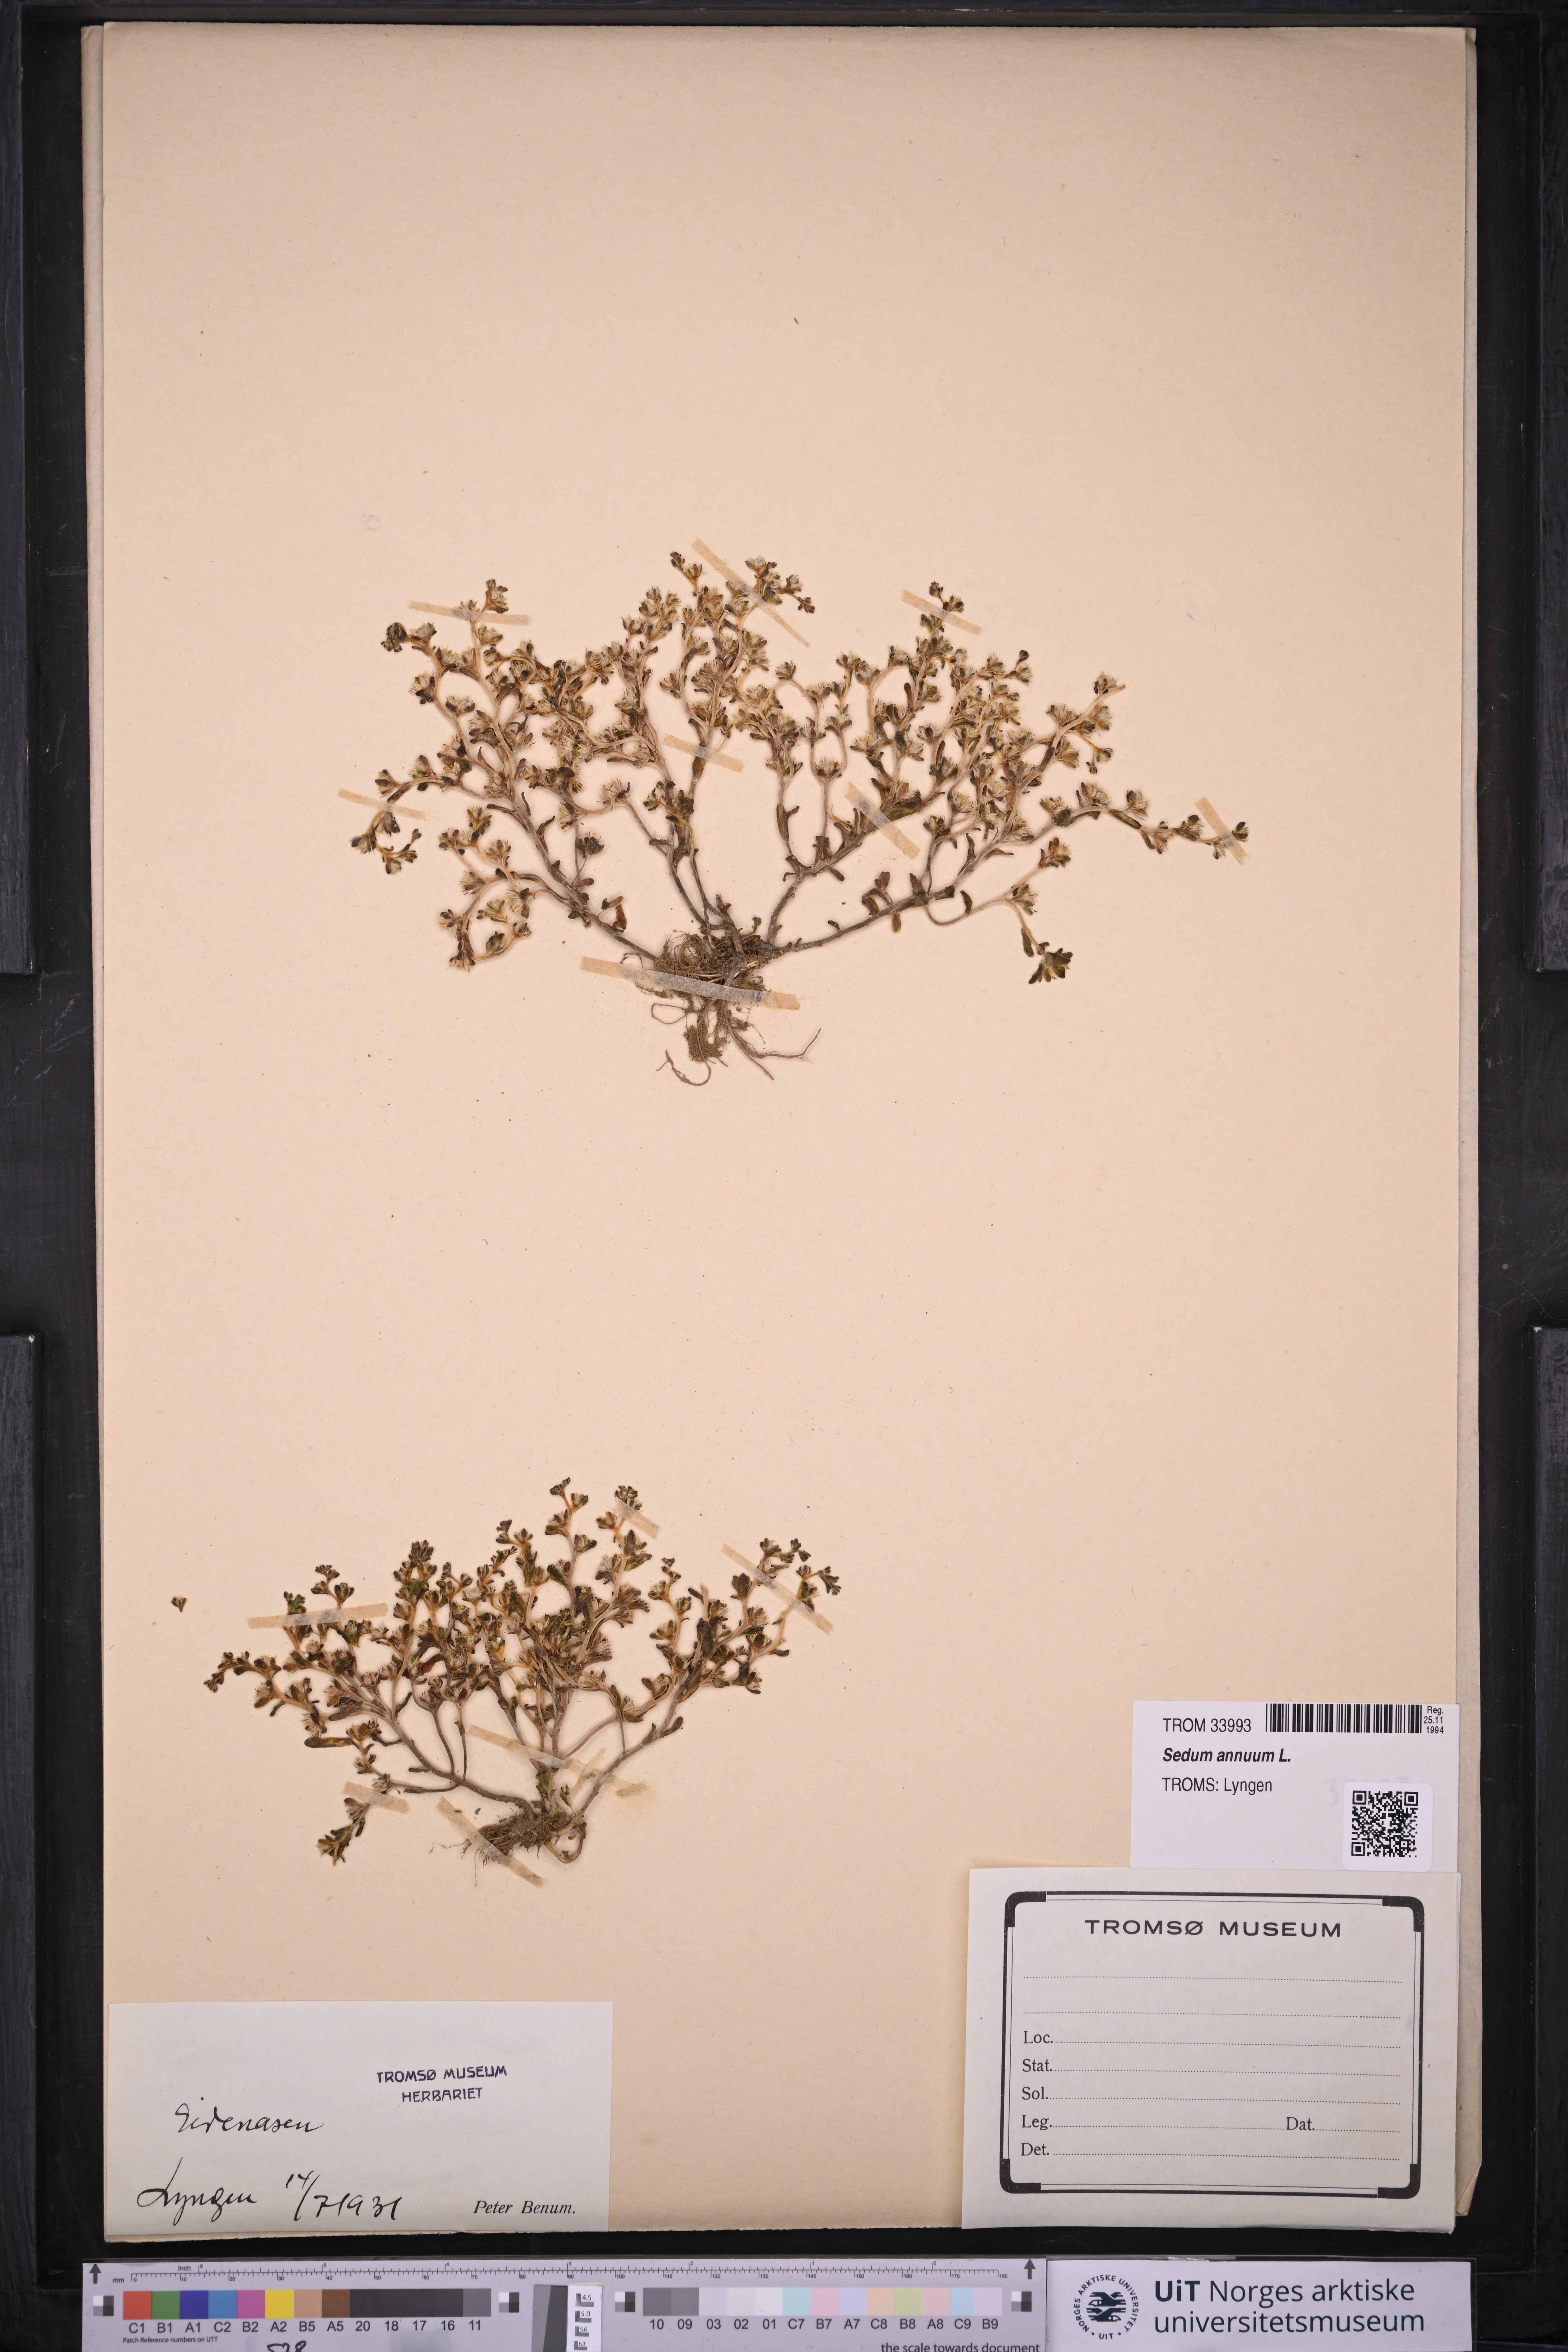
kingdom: Plantae
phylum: Tracheophyta
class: Magnoliopsida
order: Saxifragales
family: Crassulaceae
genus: Sedum
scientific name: Sedum annuum
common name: Annual stonecrop
